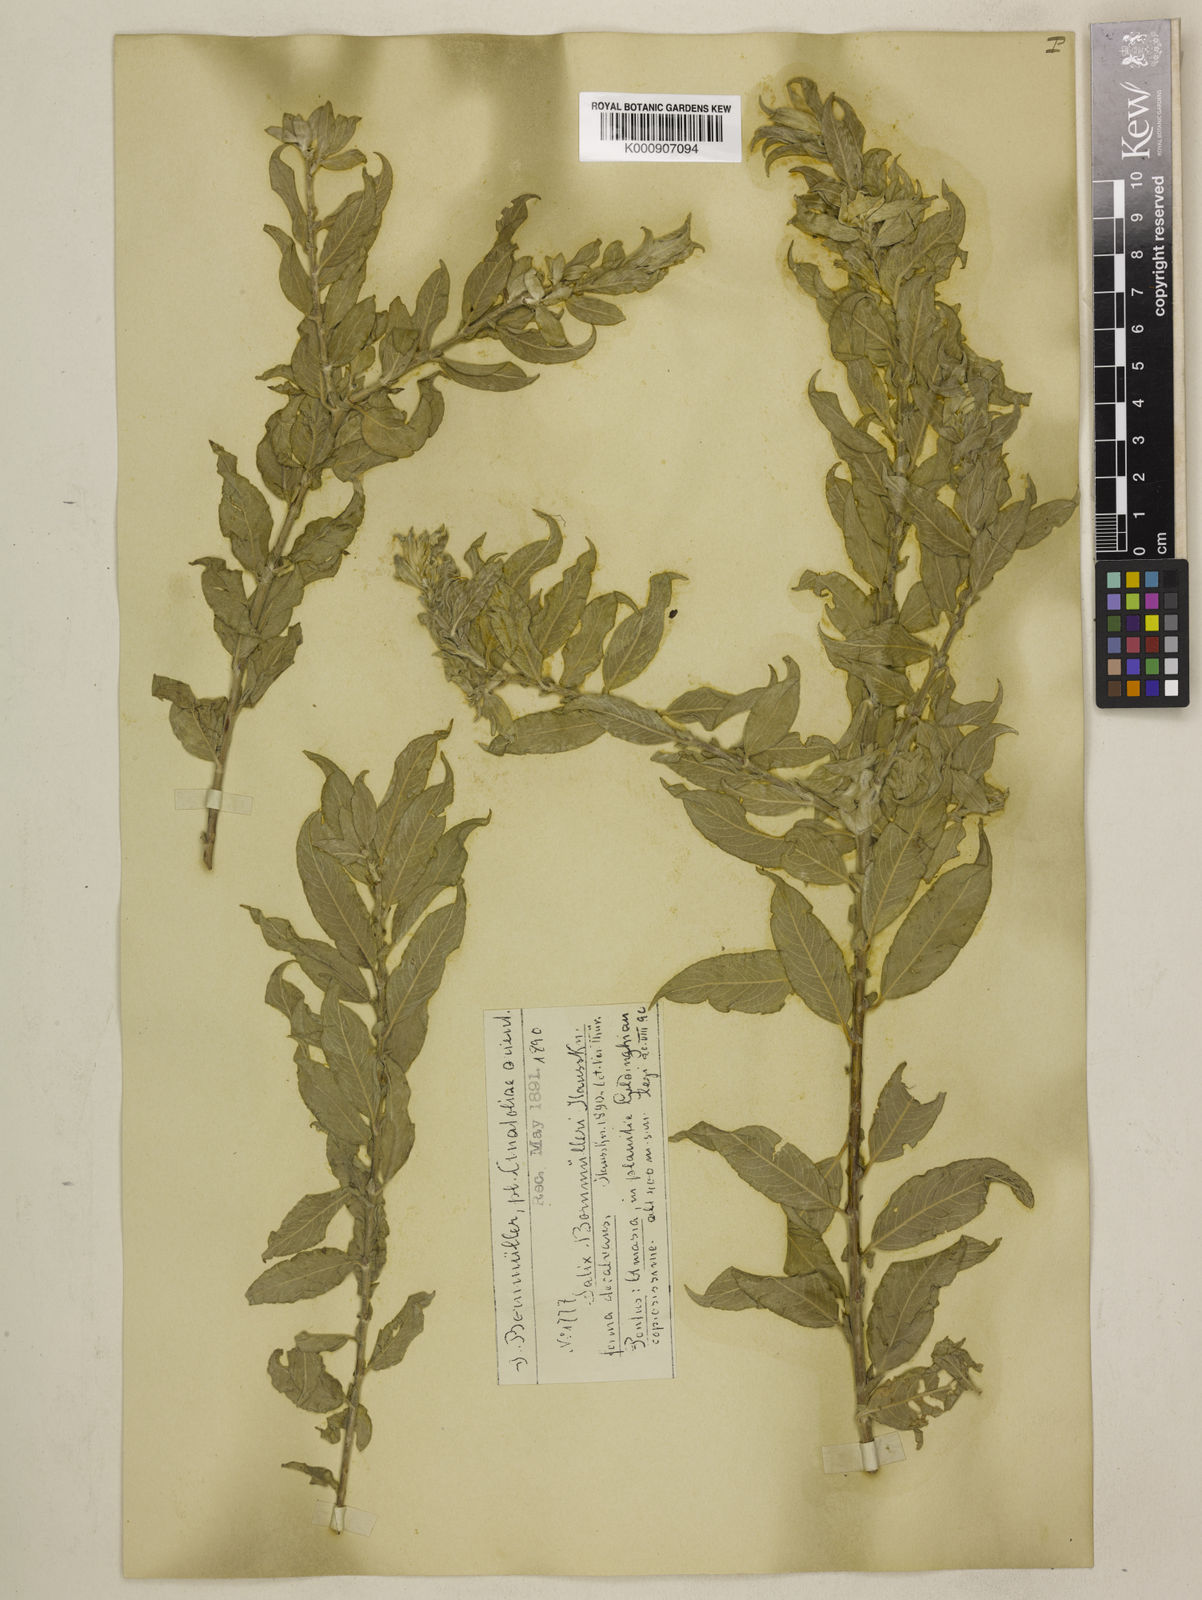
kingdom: Plantae
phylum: Tracheophyta
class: Magnoliopsida
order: Malpighiales
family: Salicaceae
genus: Salix
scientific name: Salix triandra
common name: Almond willow
